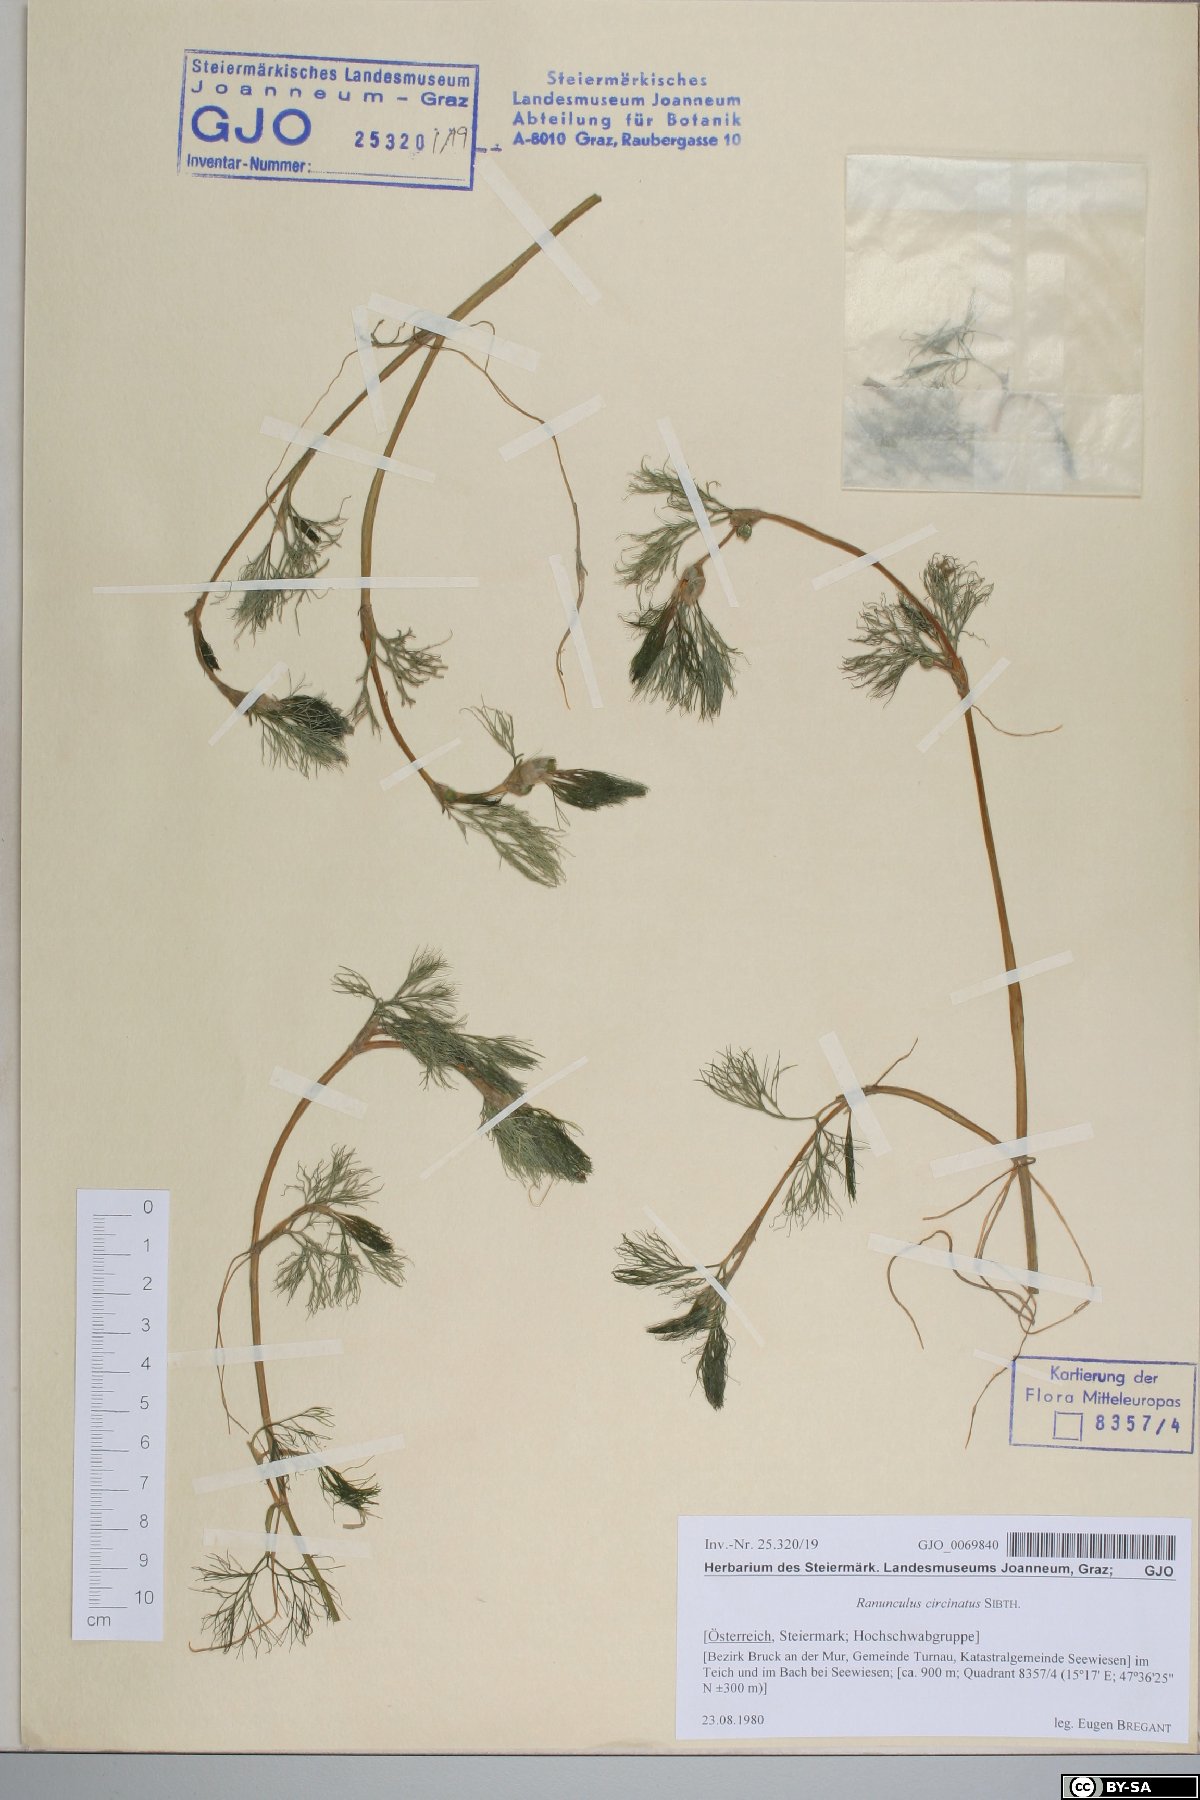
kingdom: Plantae
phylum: Tracheophyta
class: Magnoliopsida
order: Ranunculales
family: Ranunculaceae
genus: Ranunculus
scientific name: Ranunculus circinatus
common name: Fan-leaved water-crowfoot
